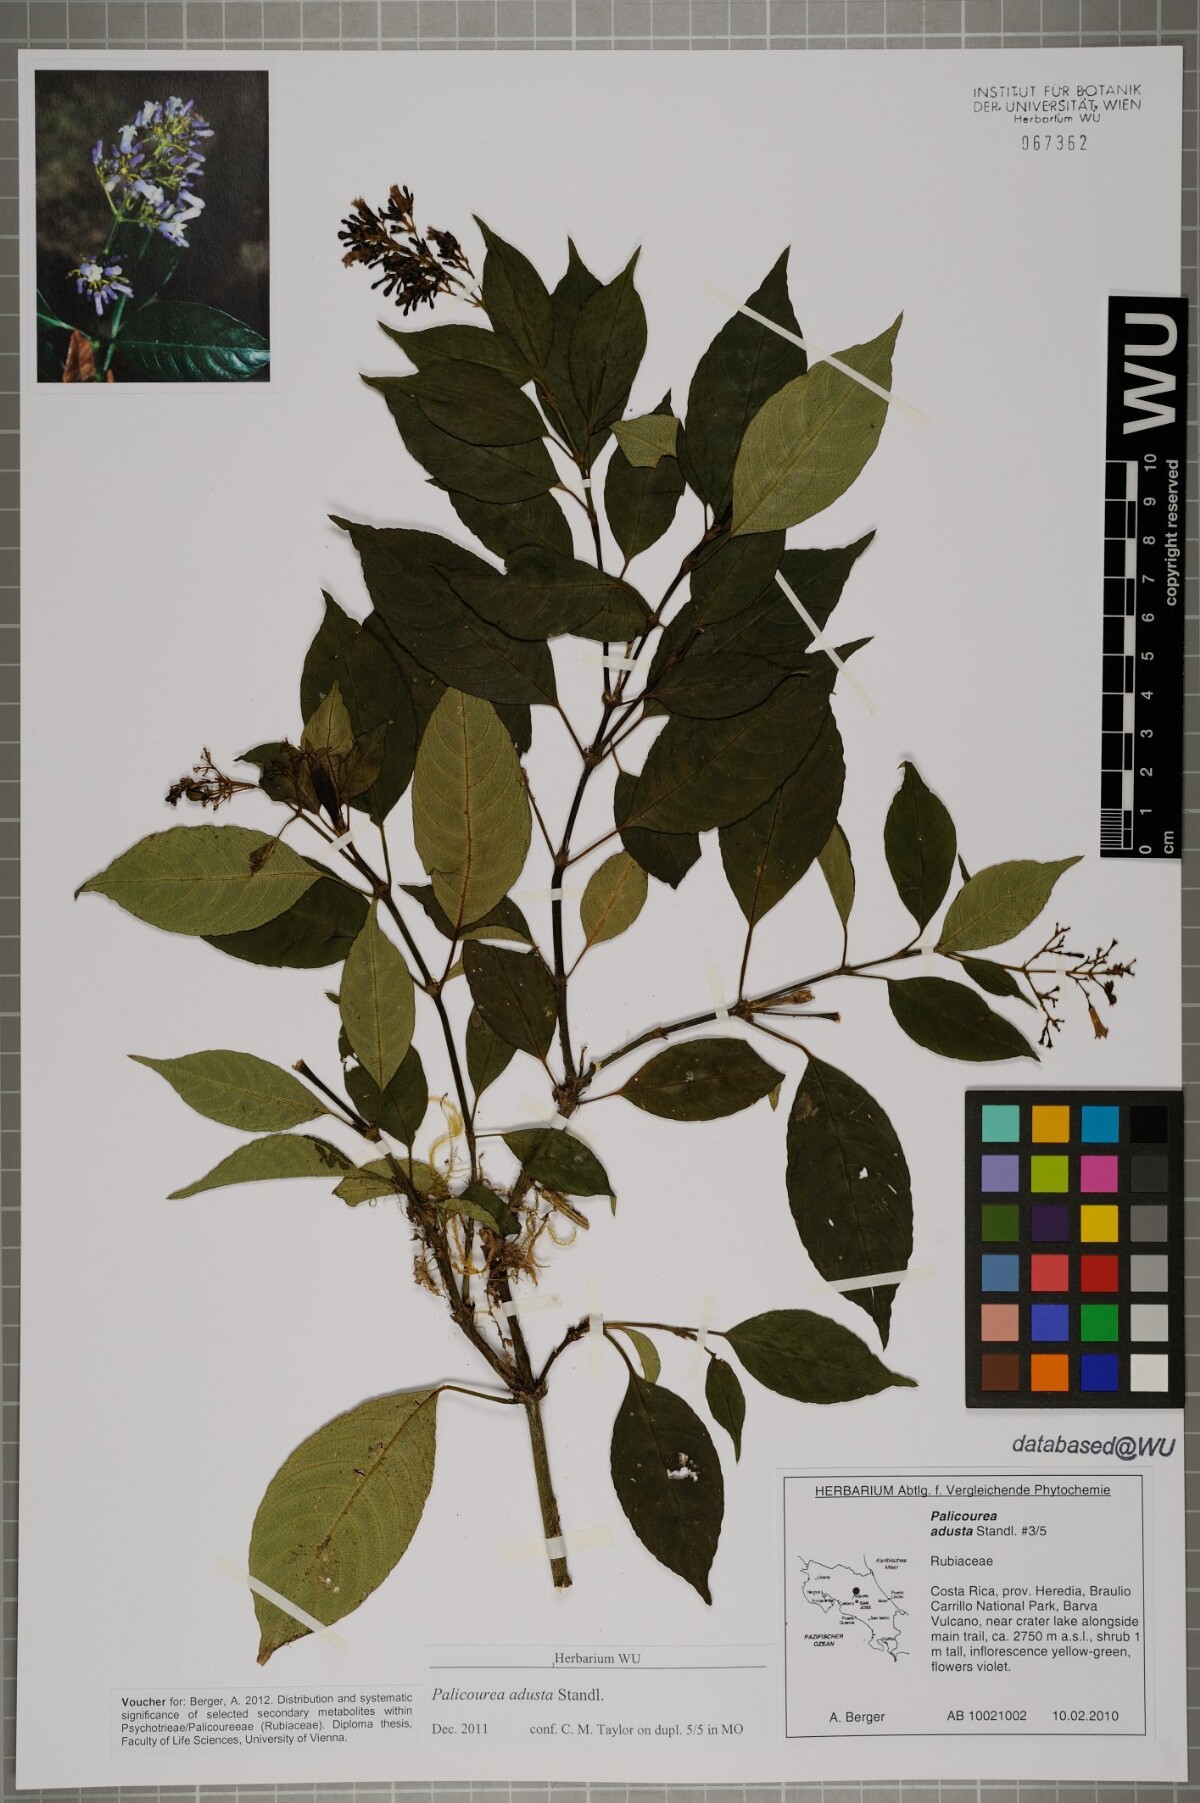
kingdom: Plantae
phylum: Tracheophyta
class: Magnoliopsida
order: Gentianales
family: Rubiaceae
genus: Palicourea
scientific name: Palicourea adusta
